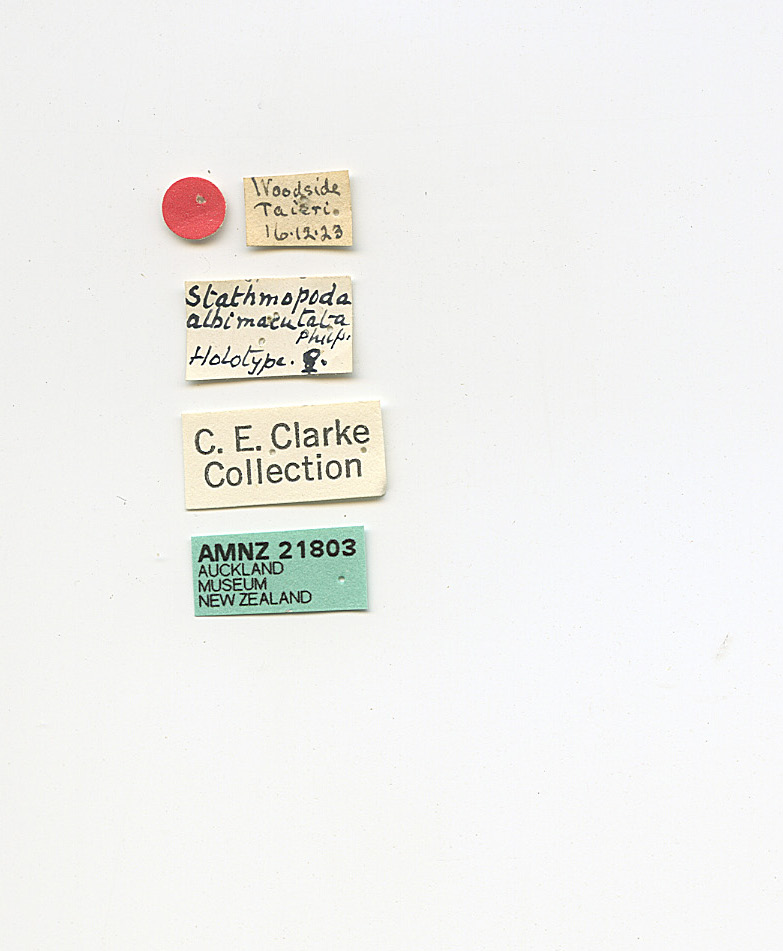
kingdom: Animalia
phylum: Arthropoda
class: Insecta
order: Lepidoptera
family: Stathmopodidae
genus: Stathmopoda
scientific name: Stathmopoda albimaculata
